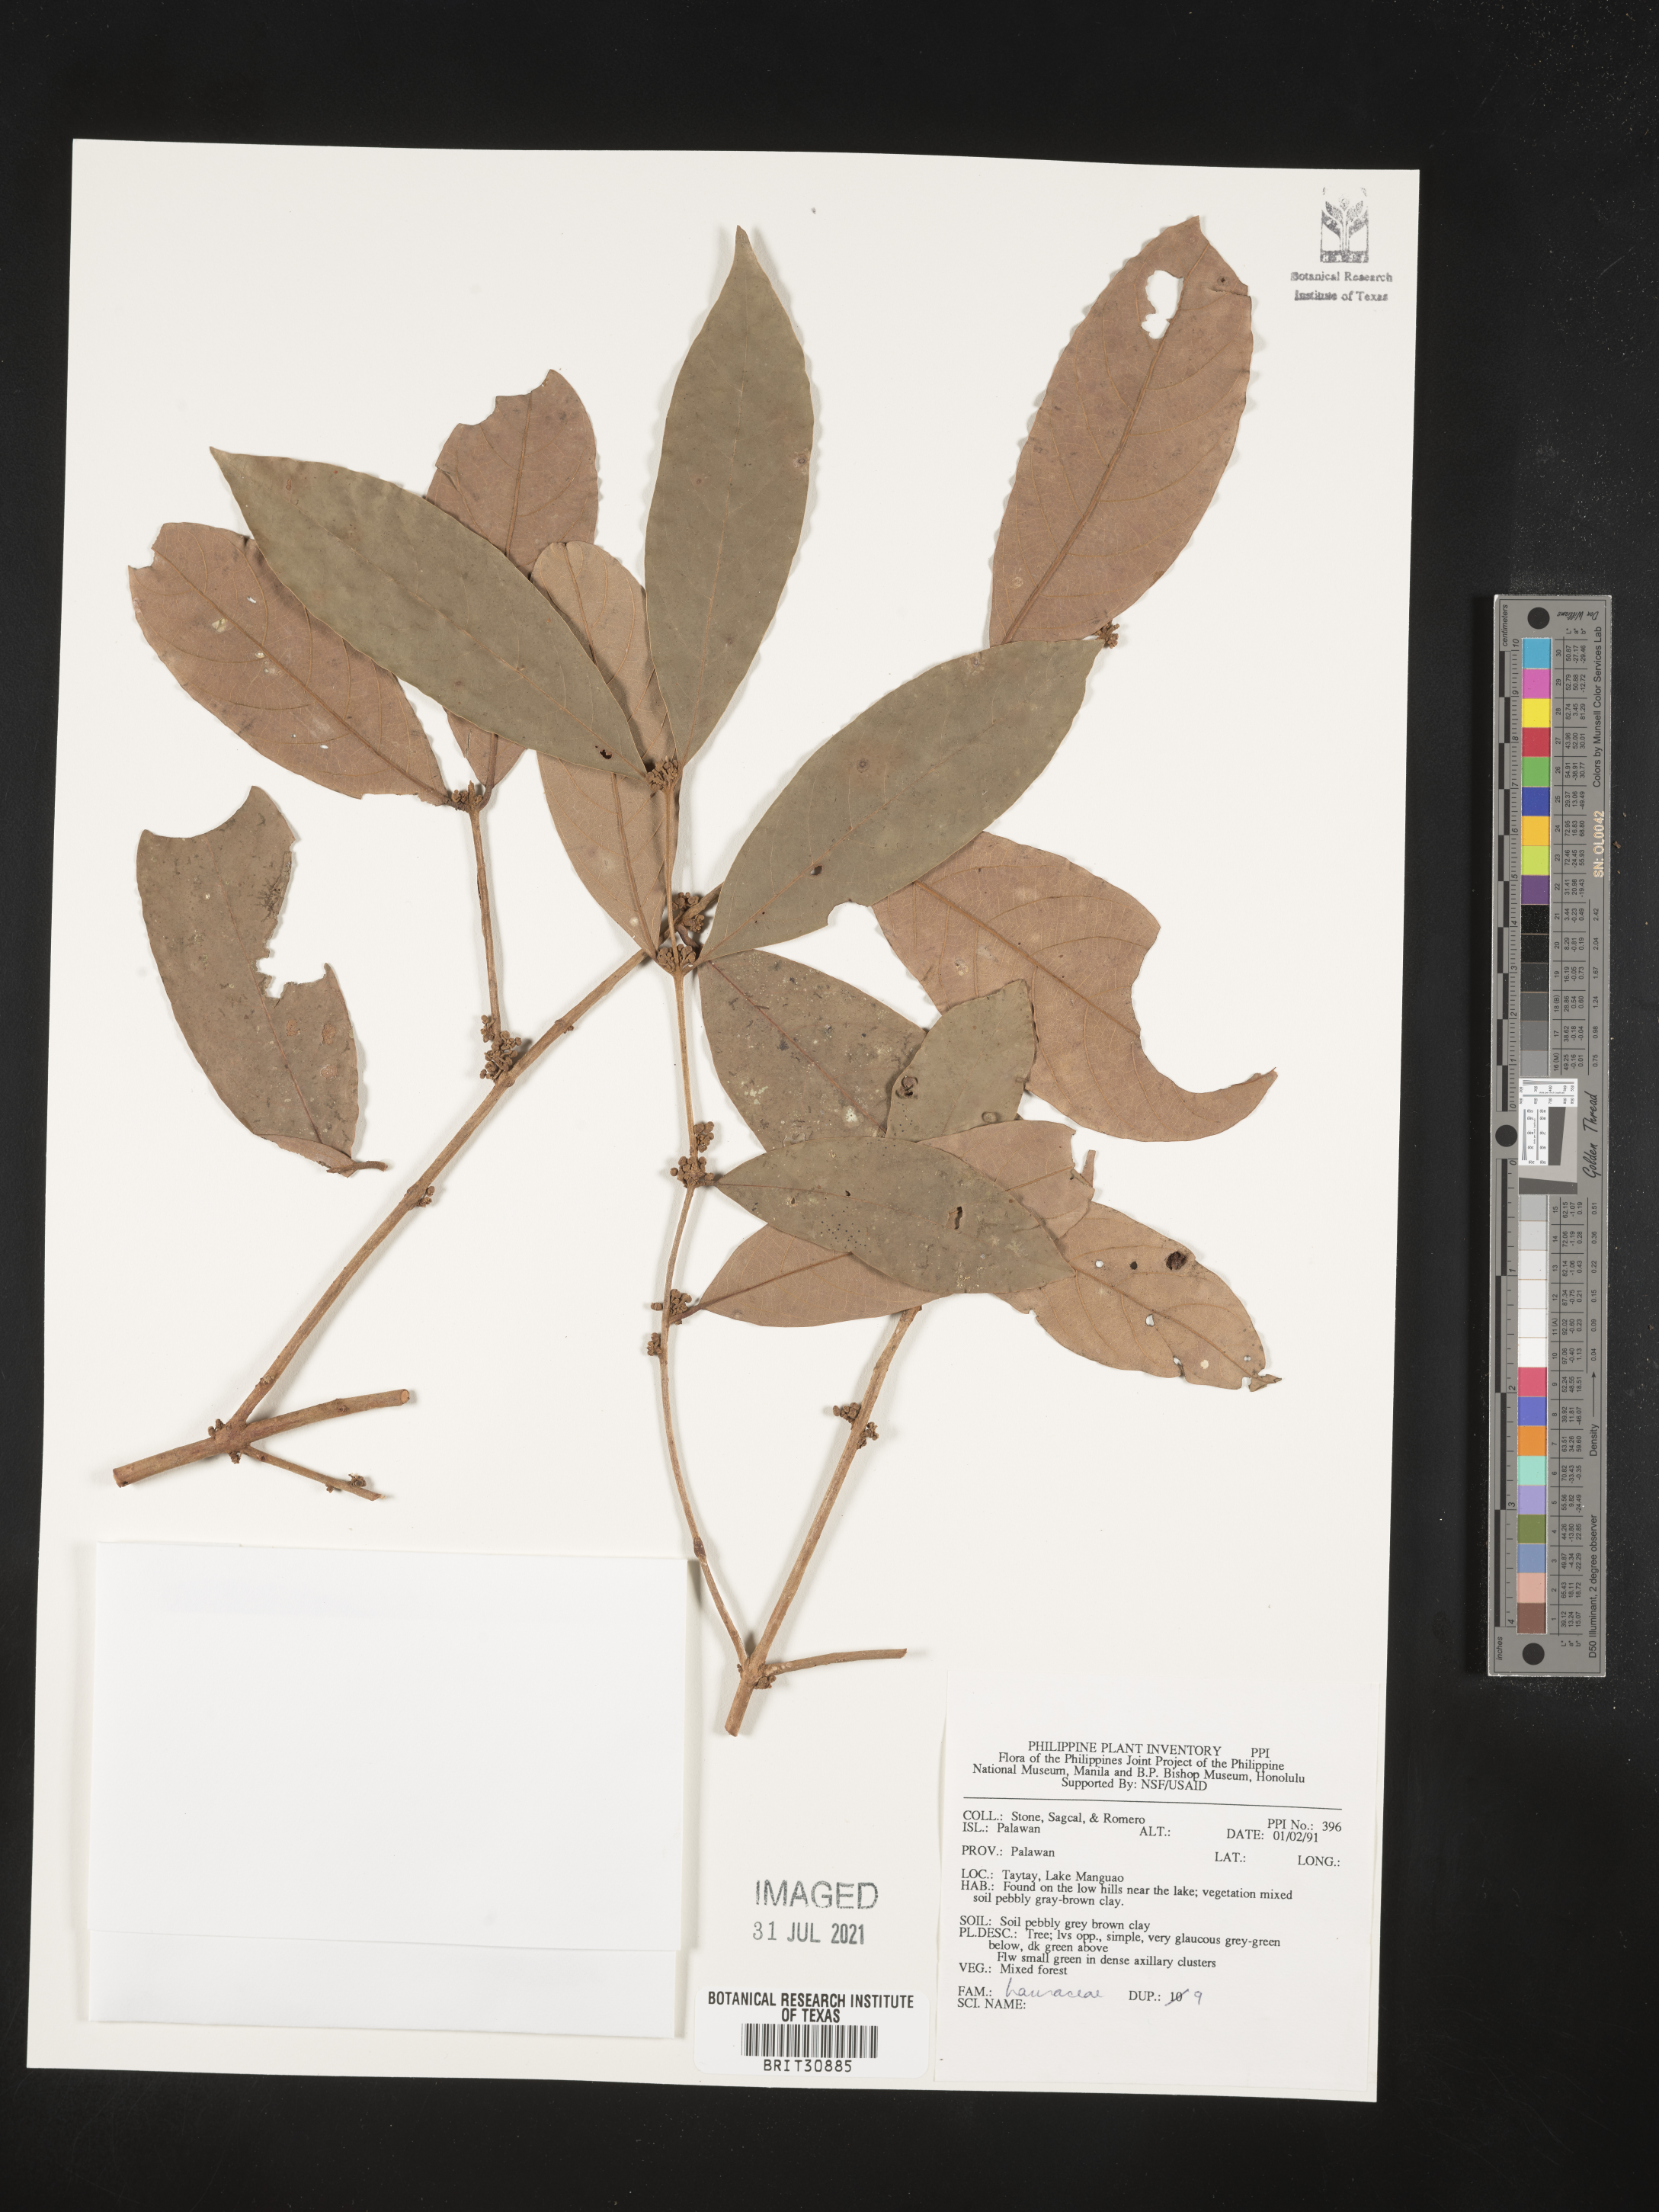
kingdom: Plantae
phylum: Tracheophyta
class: Magnoliopsida
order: Laurales
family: Lauraceae
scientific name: Lauraceae
